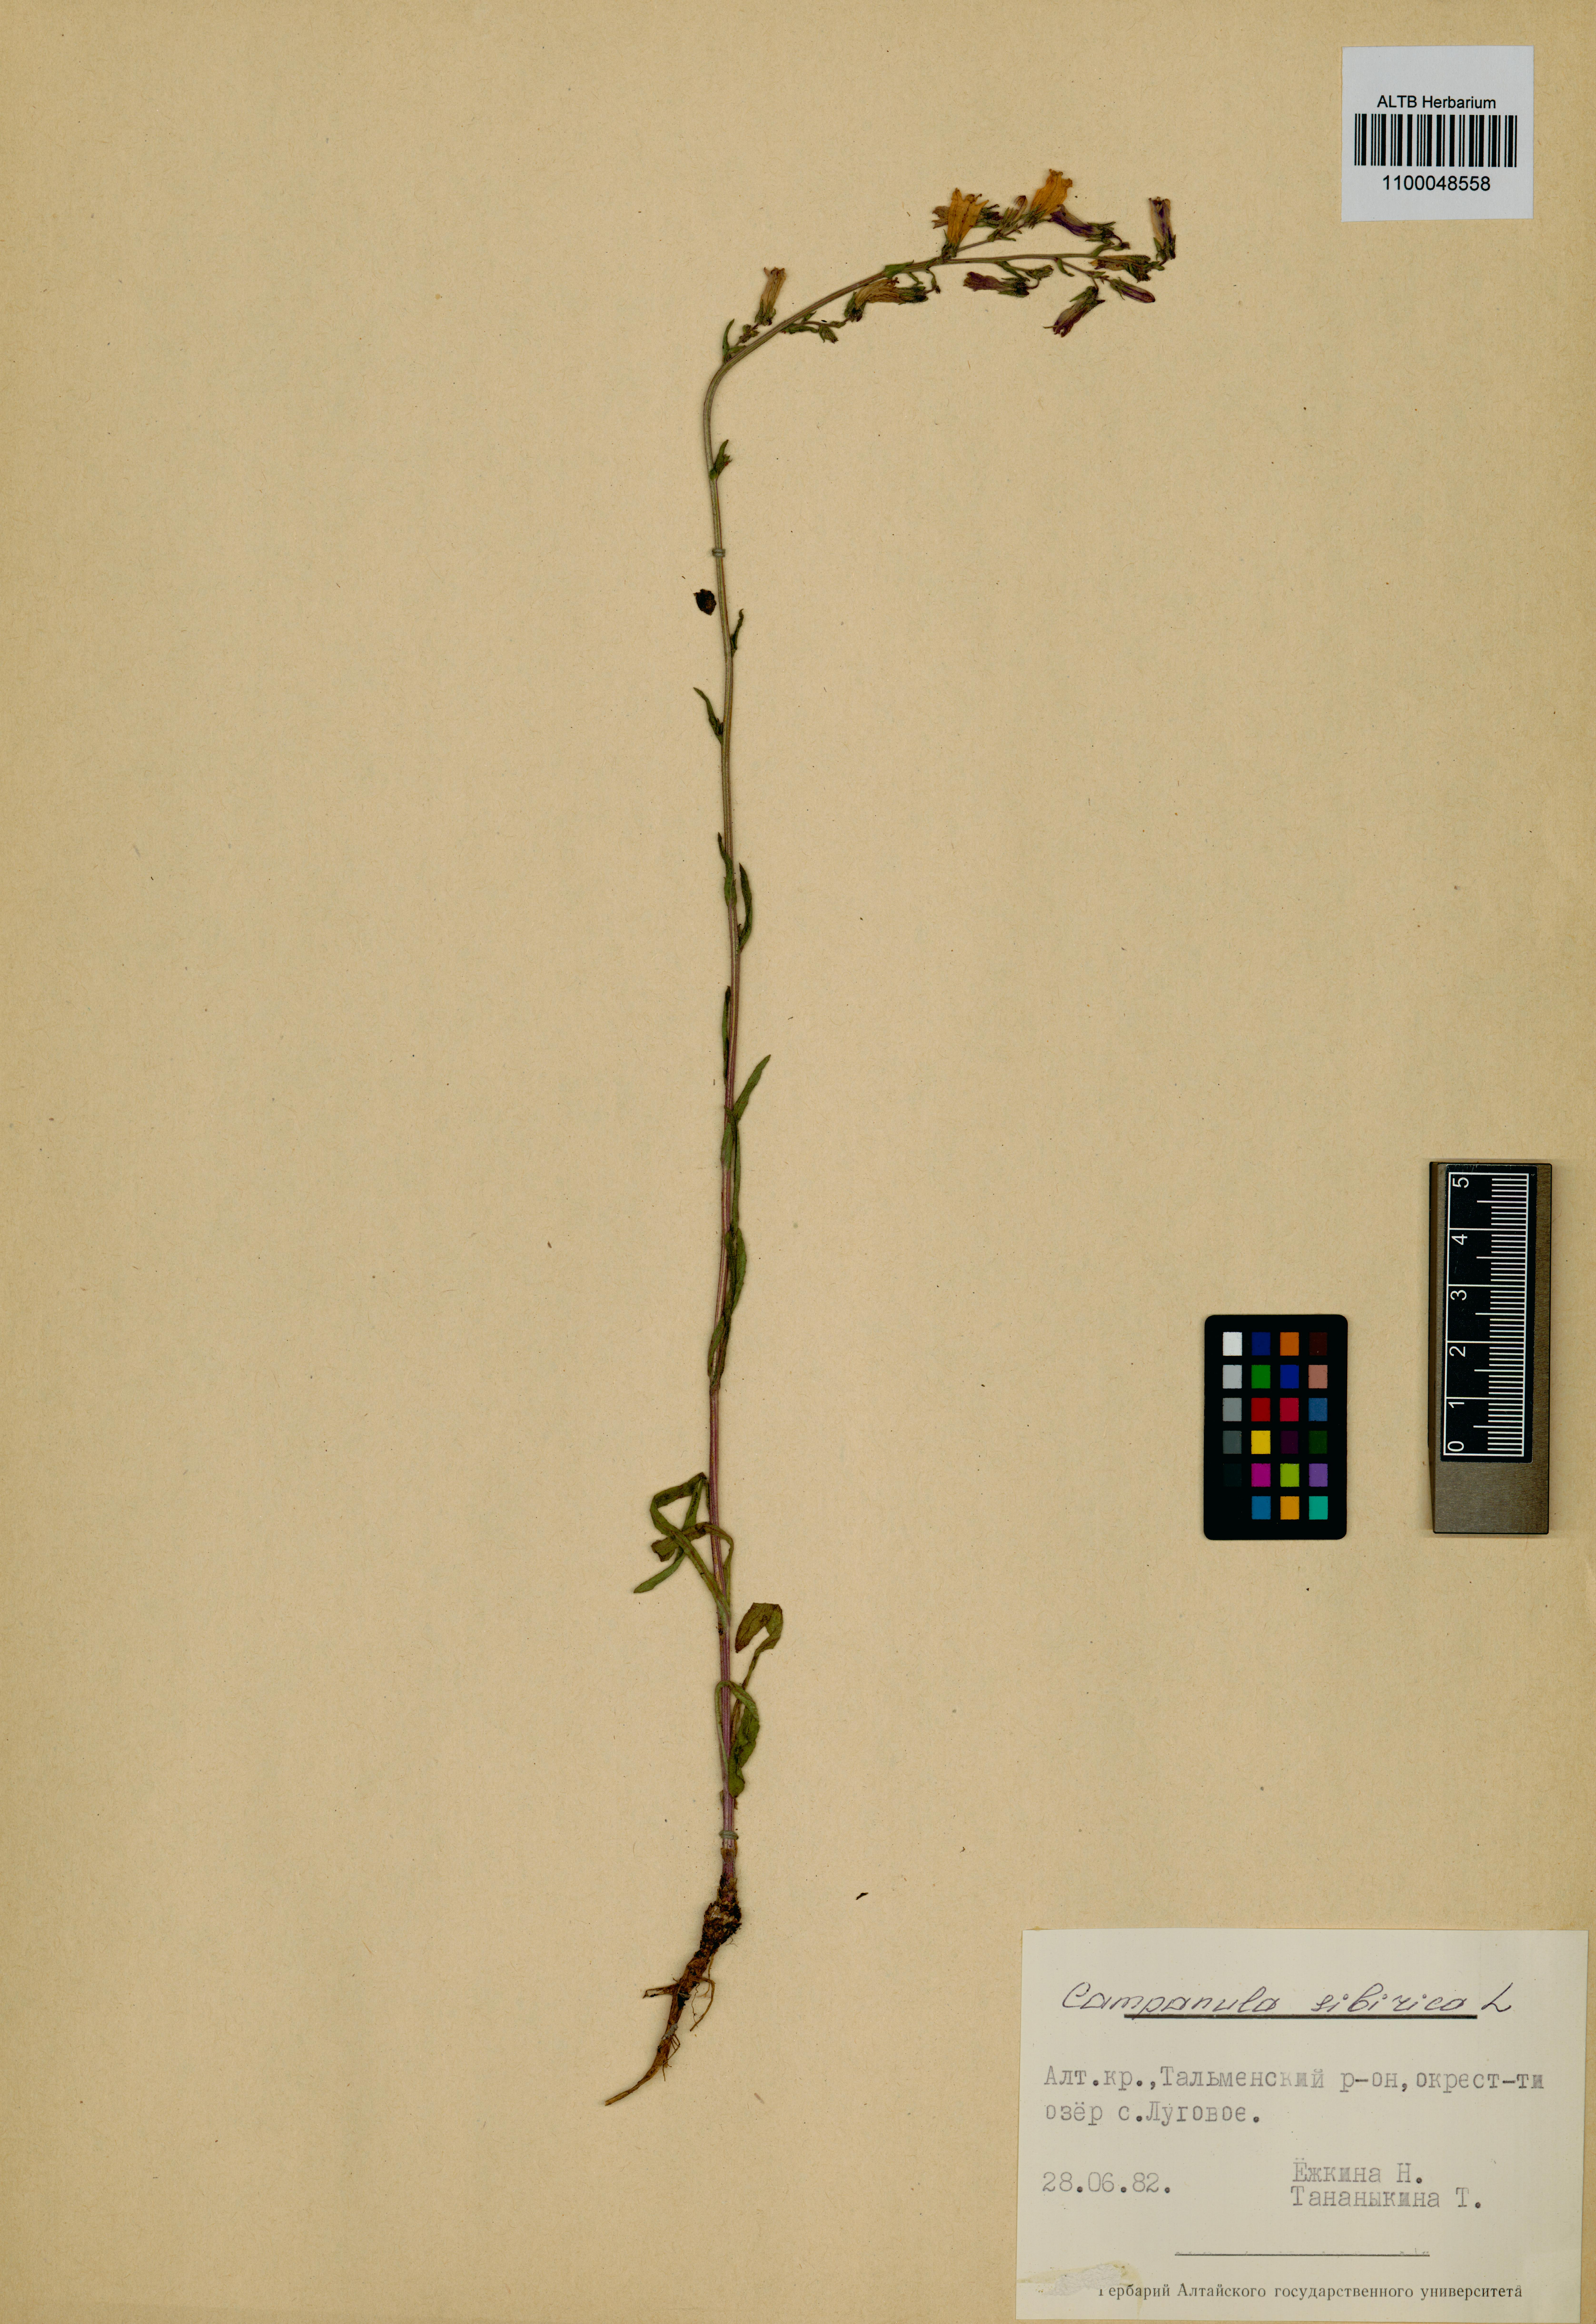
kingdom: Plantae
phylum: Tracheophyta
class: Magnoliopsida
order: Asterales
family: Campanulaceae
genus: Campanula
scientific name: Campanula sibirica
